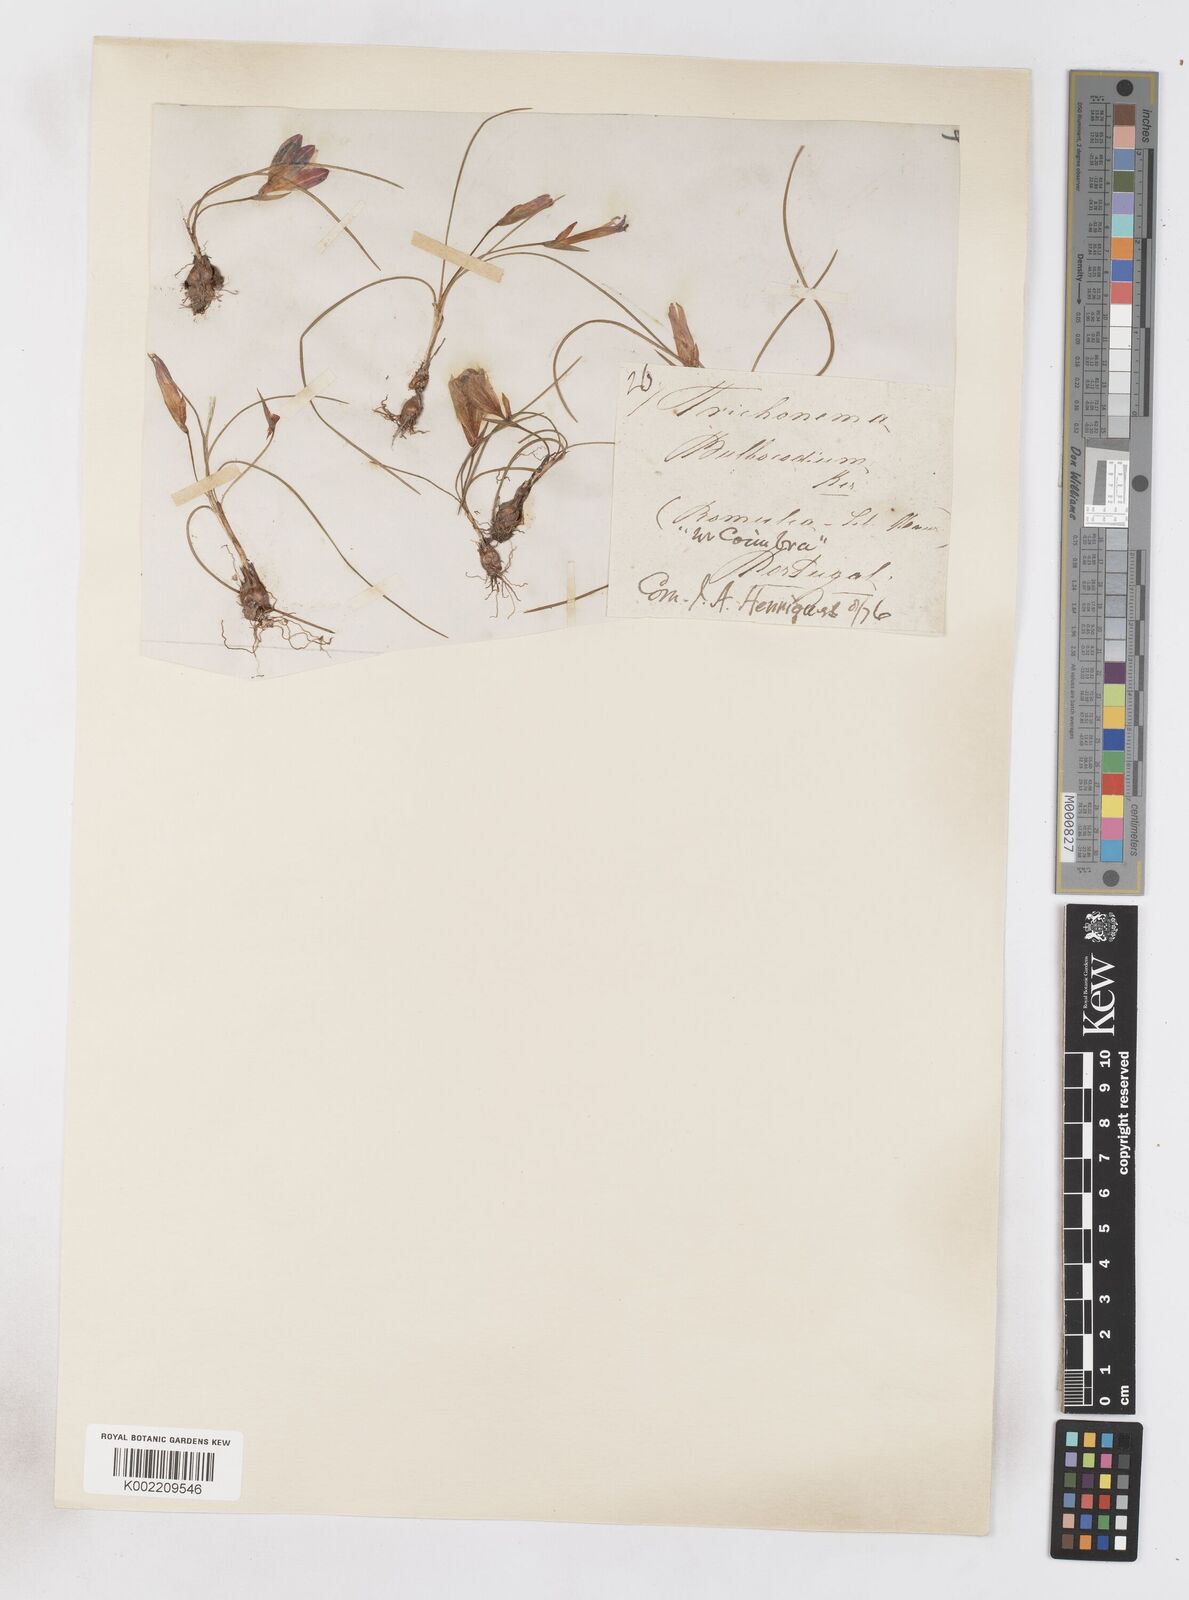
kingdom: Plantae
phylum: Tracheophyta
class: Liliopsida
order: Asparagales
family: Iridaceae
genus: Romulea
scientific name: Romulea bulbocodium
